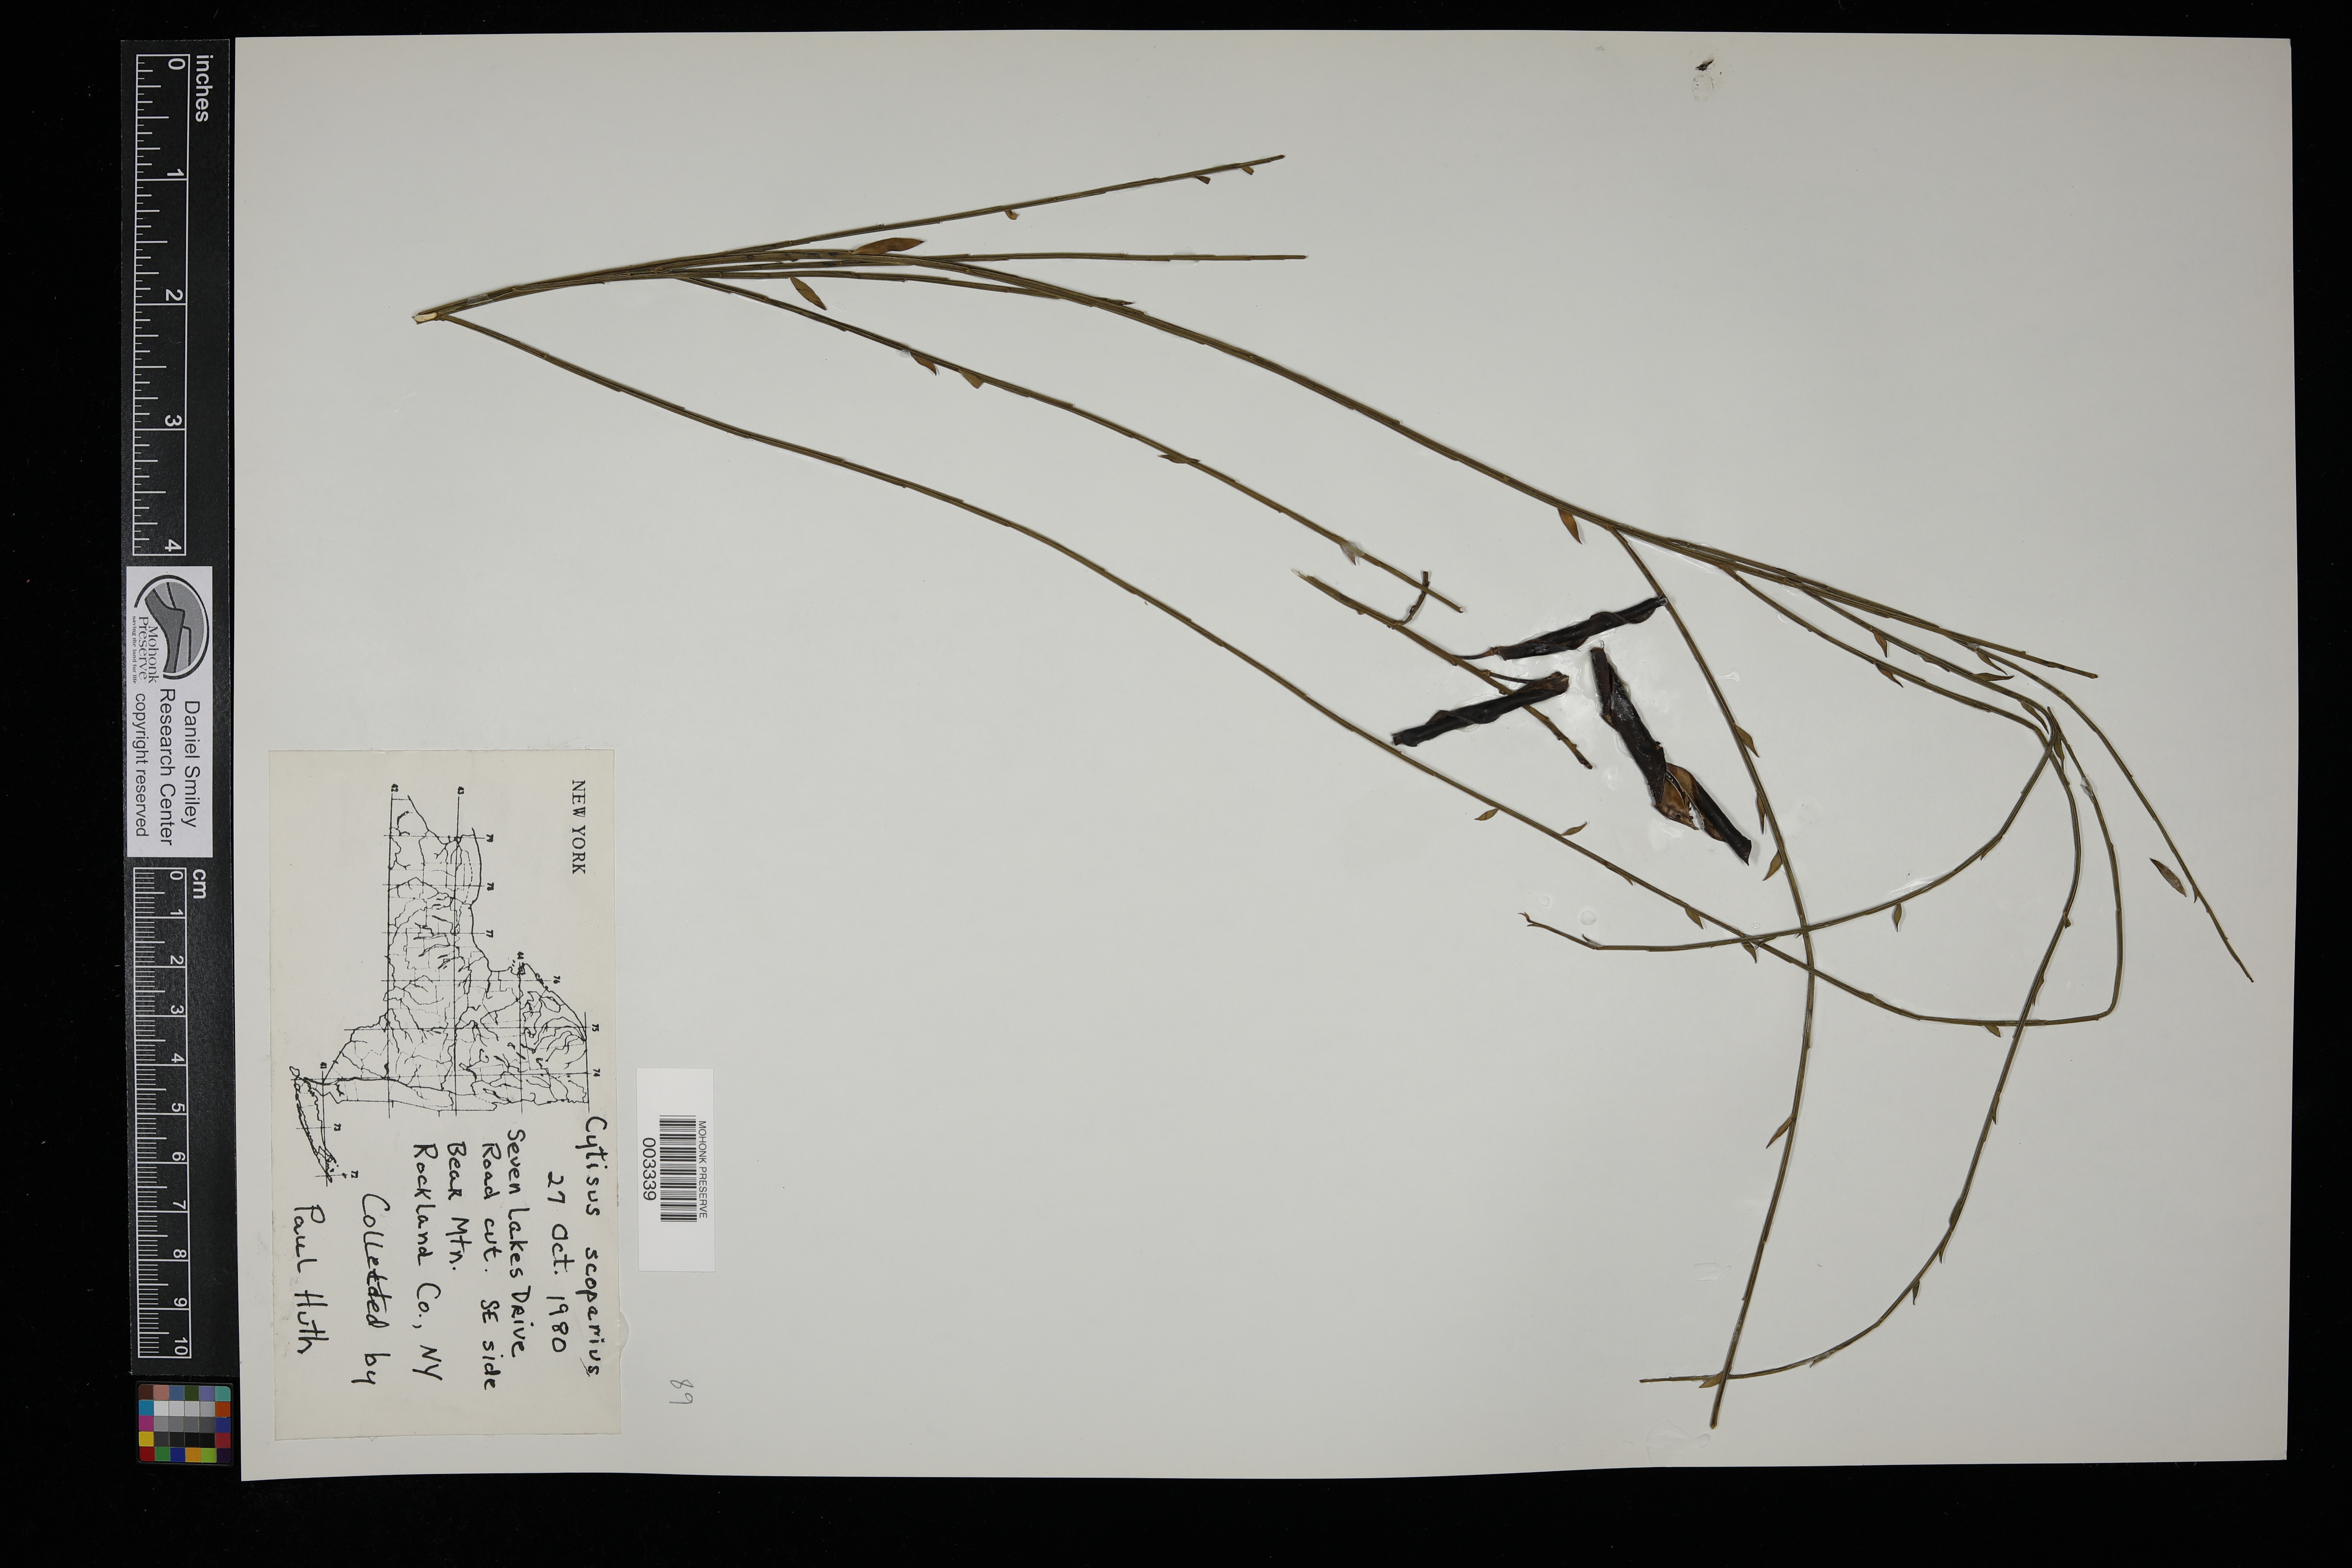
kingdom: Plantae
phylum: Tracheophyta
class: Magnoliopsida
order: Fabales
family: Fabaceae
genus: Cytisus
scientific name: Cytisus scoparius
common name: Scotch broom
